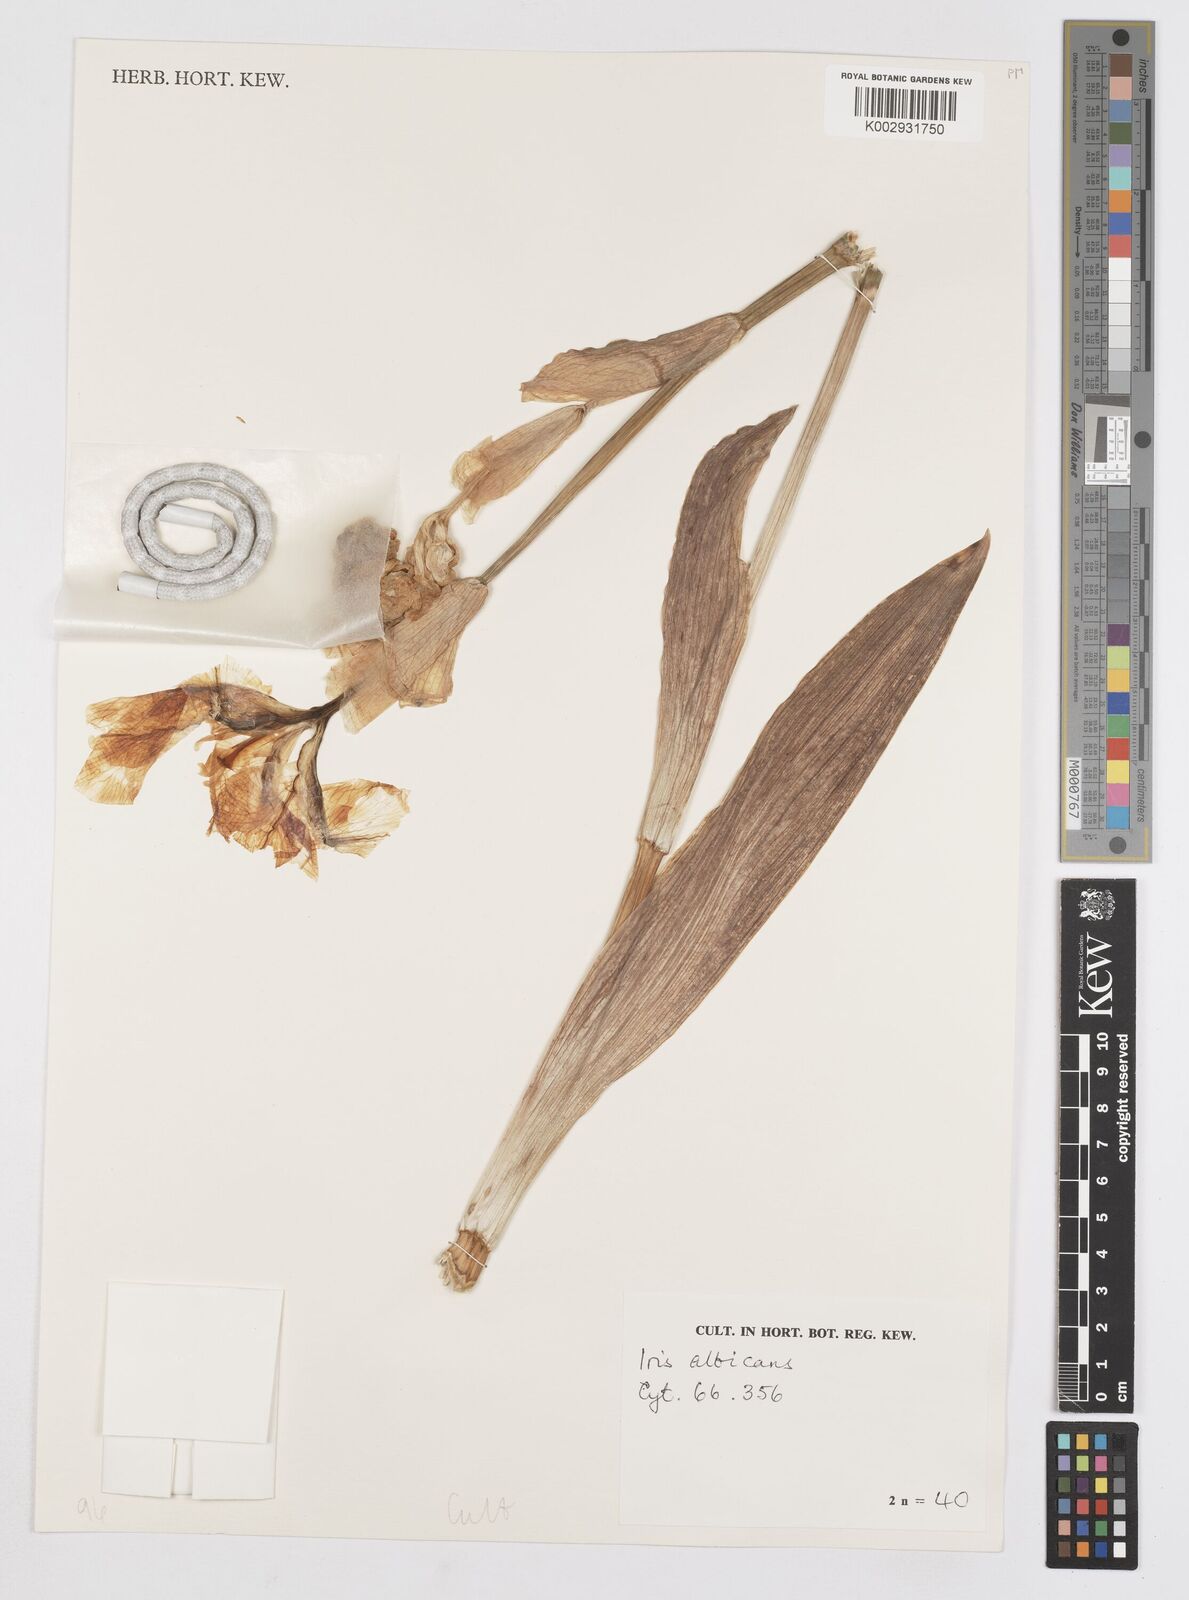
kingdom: Plantae
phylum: Tracheophyta
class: Liliopsida
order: Asparagales
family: Iridaceae
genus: Iris
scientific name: Iris florentina
